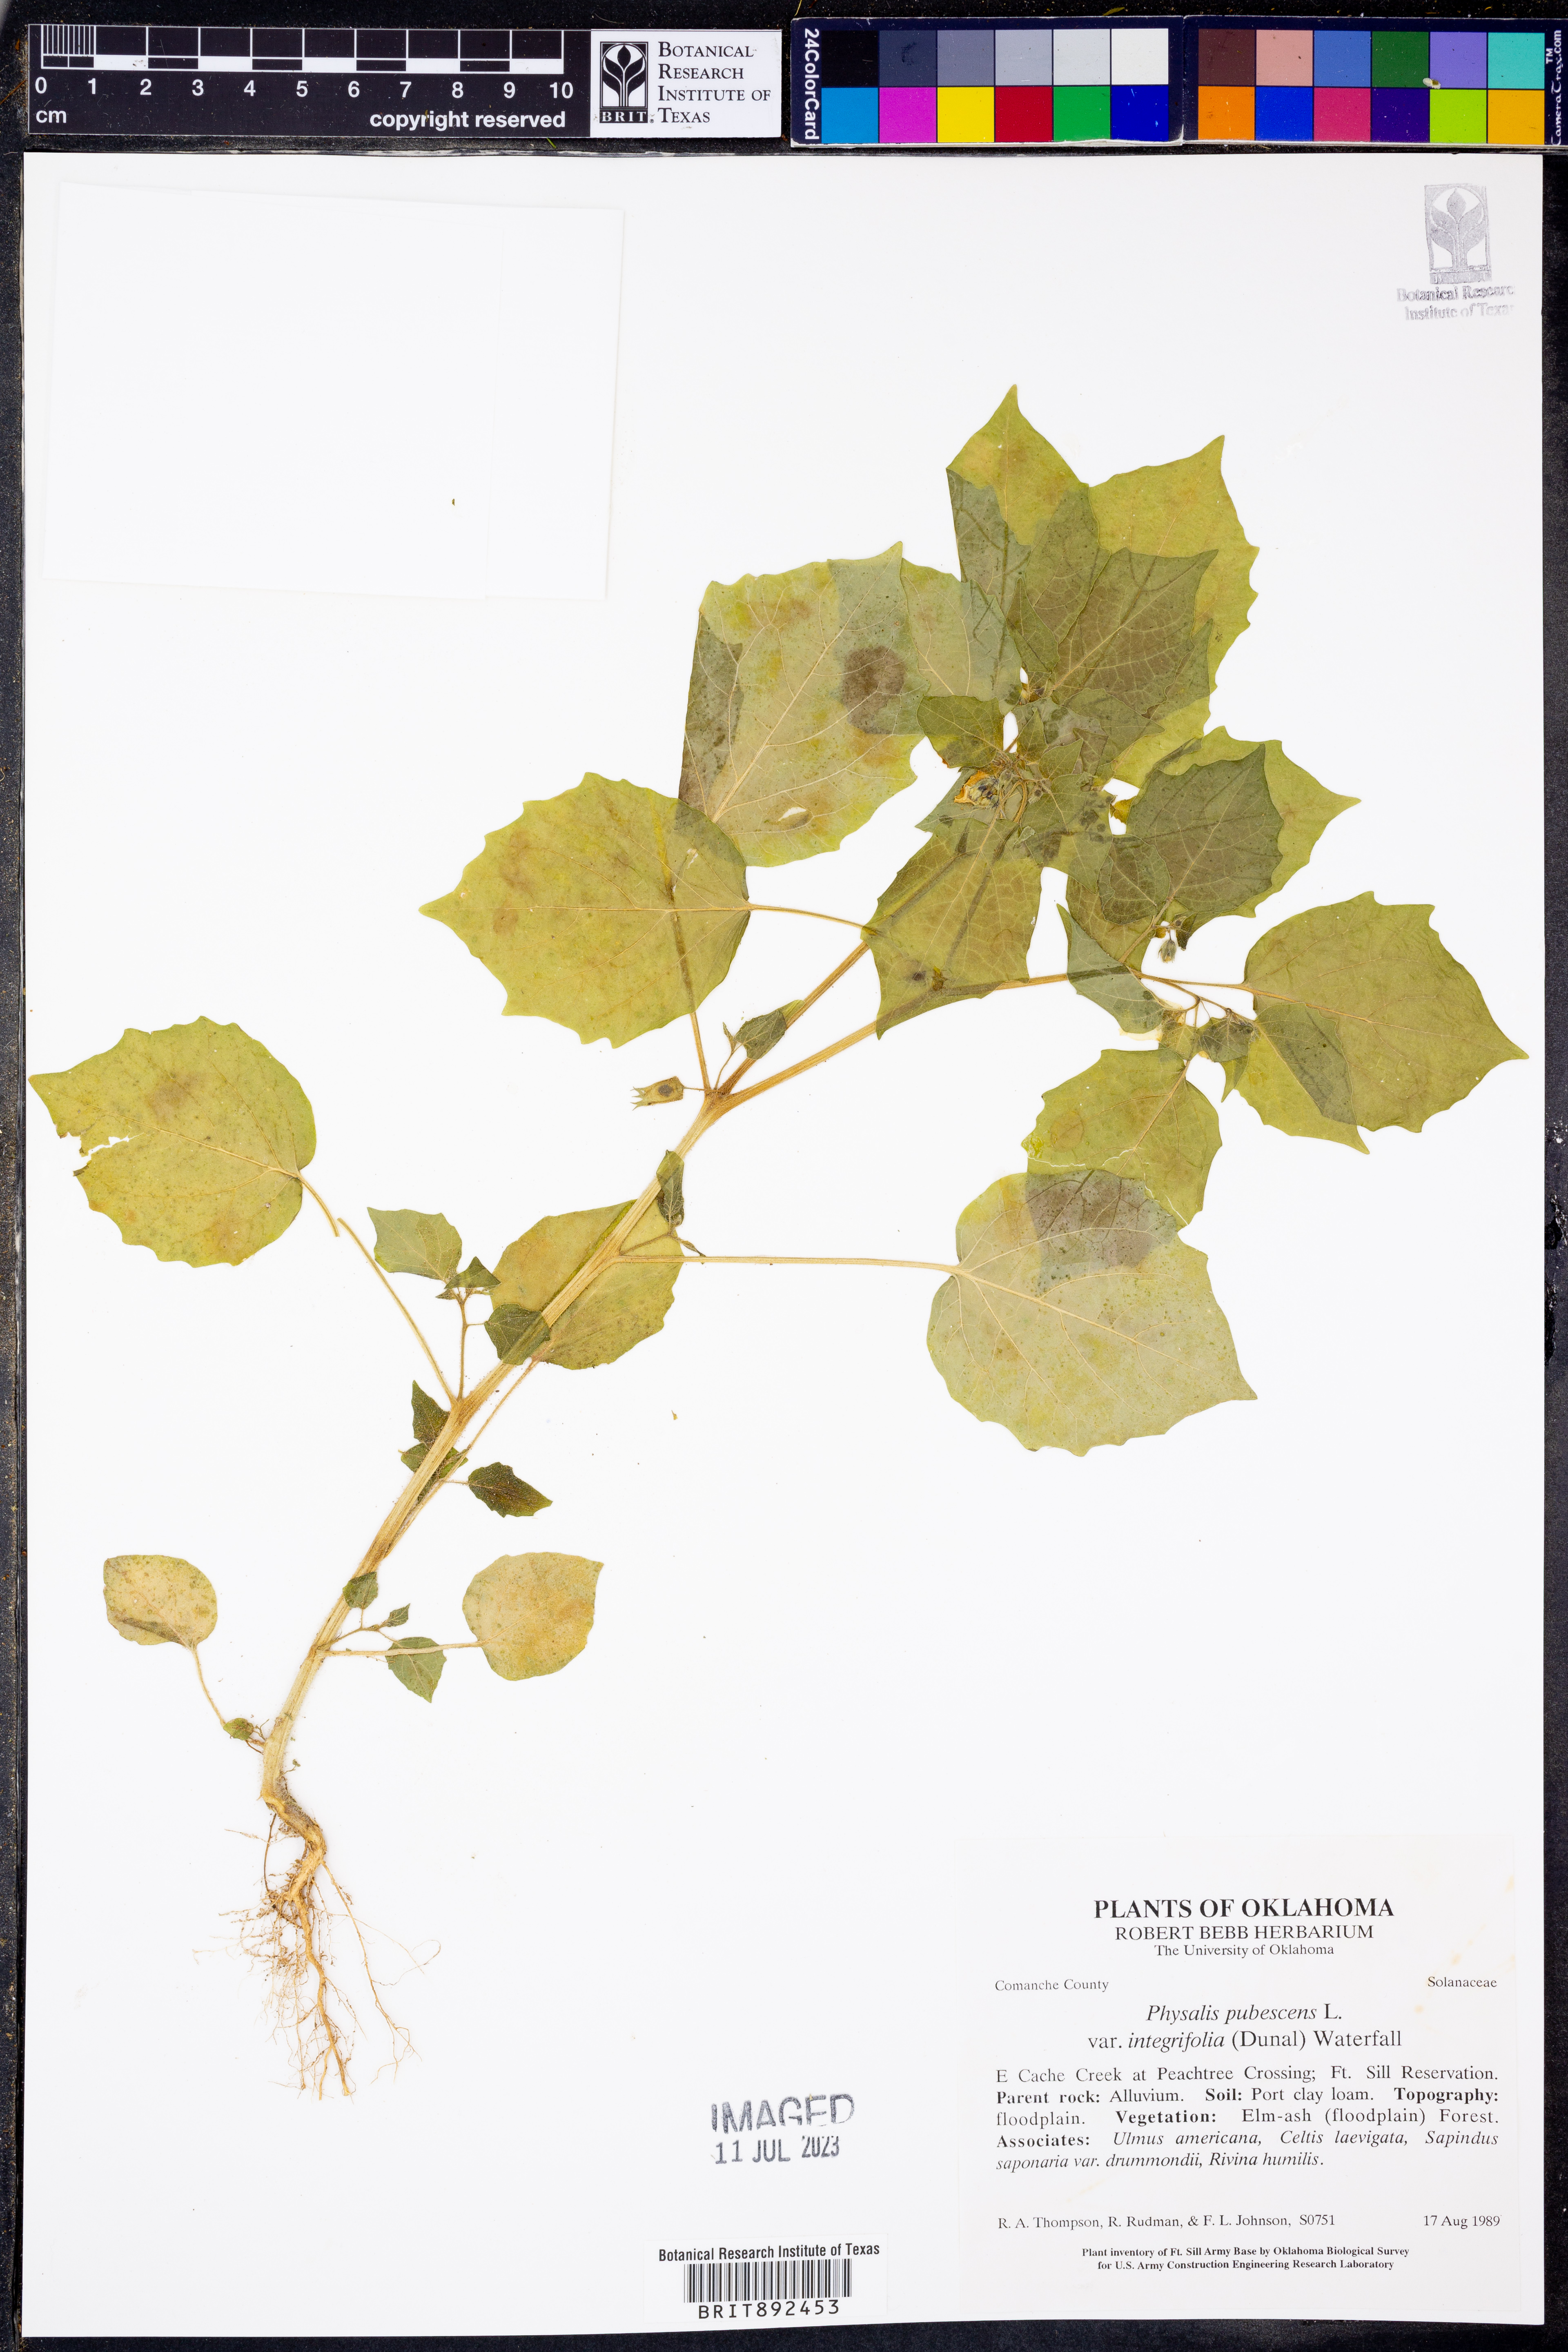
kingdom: Plantae
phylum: Tracheophyta
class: Magnoliopsida
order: Solanales
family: Solanaceae
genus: Physalis
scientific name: Physalis pubescens
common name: Downy ground-cherry
